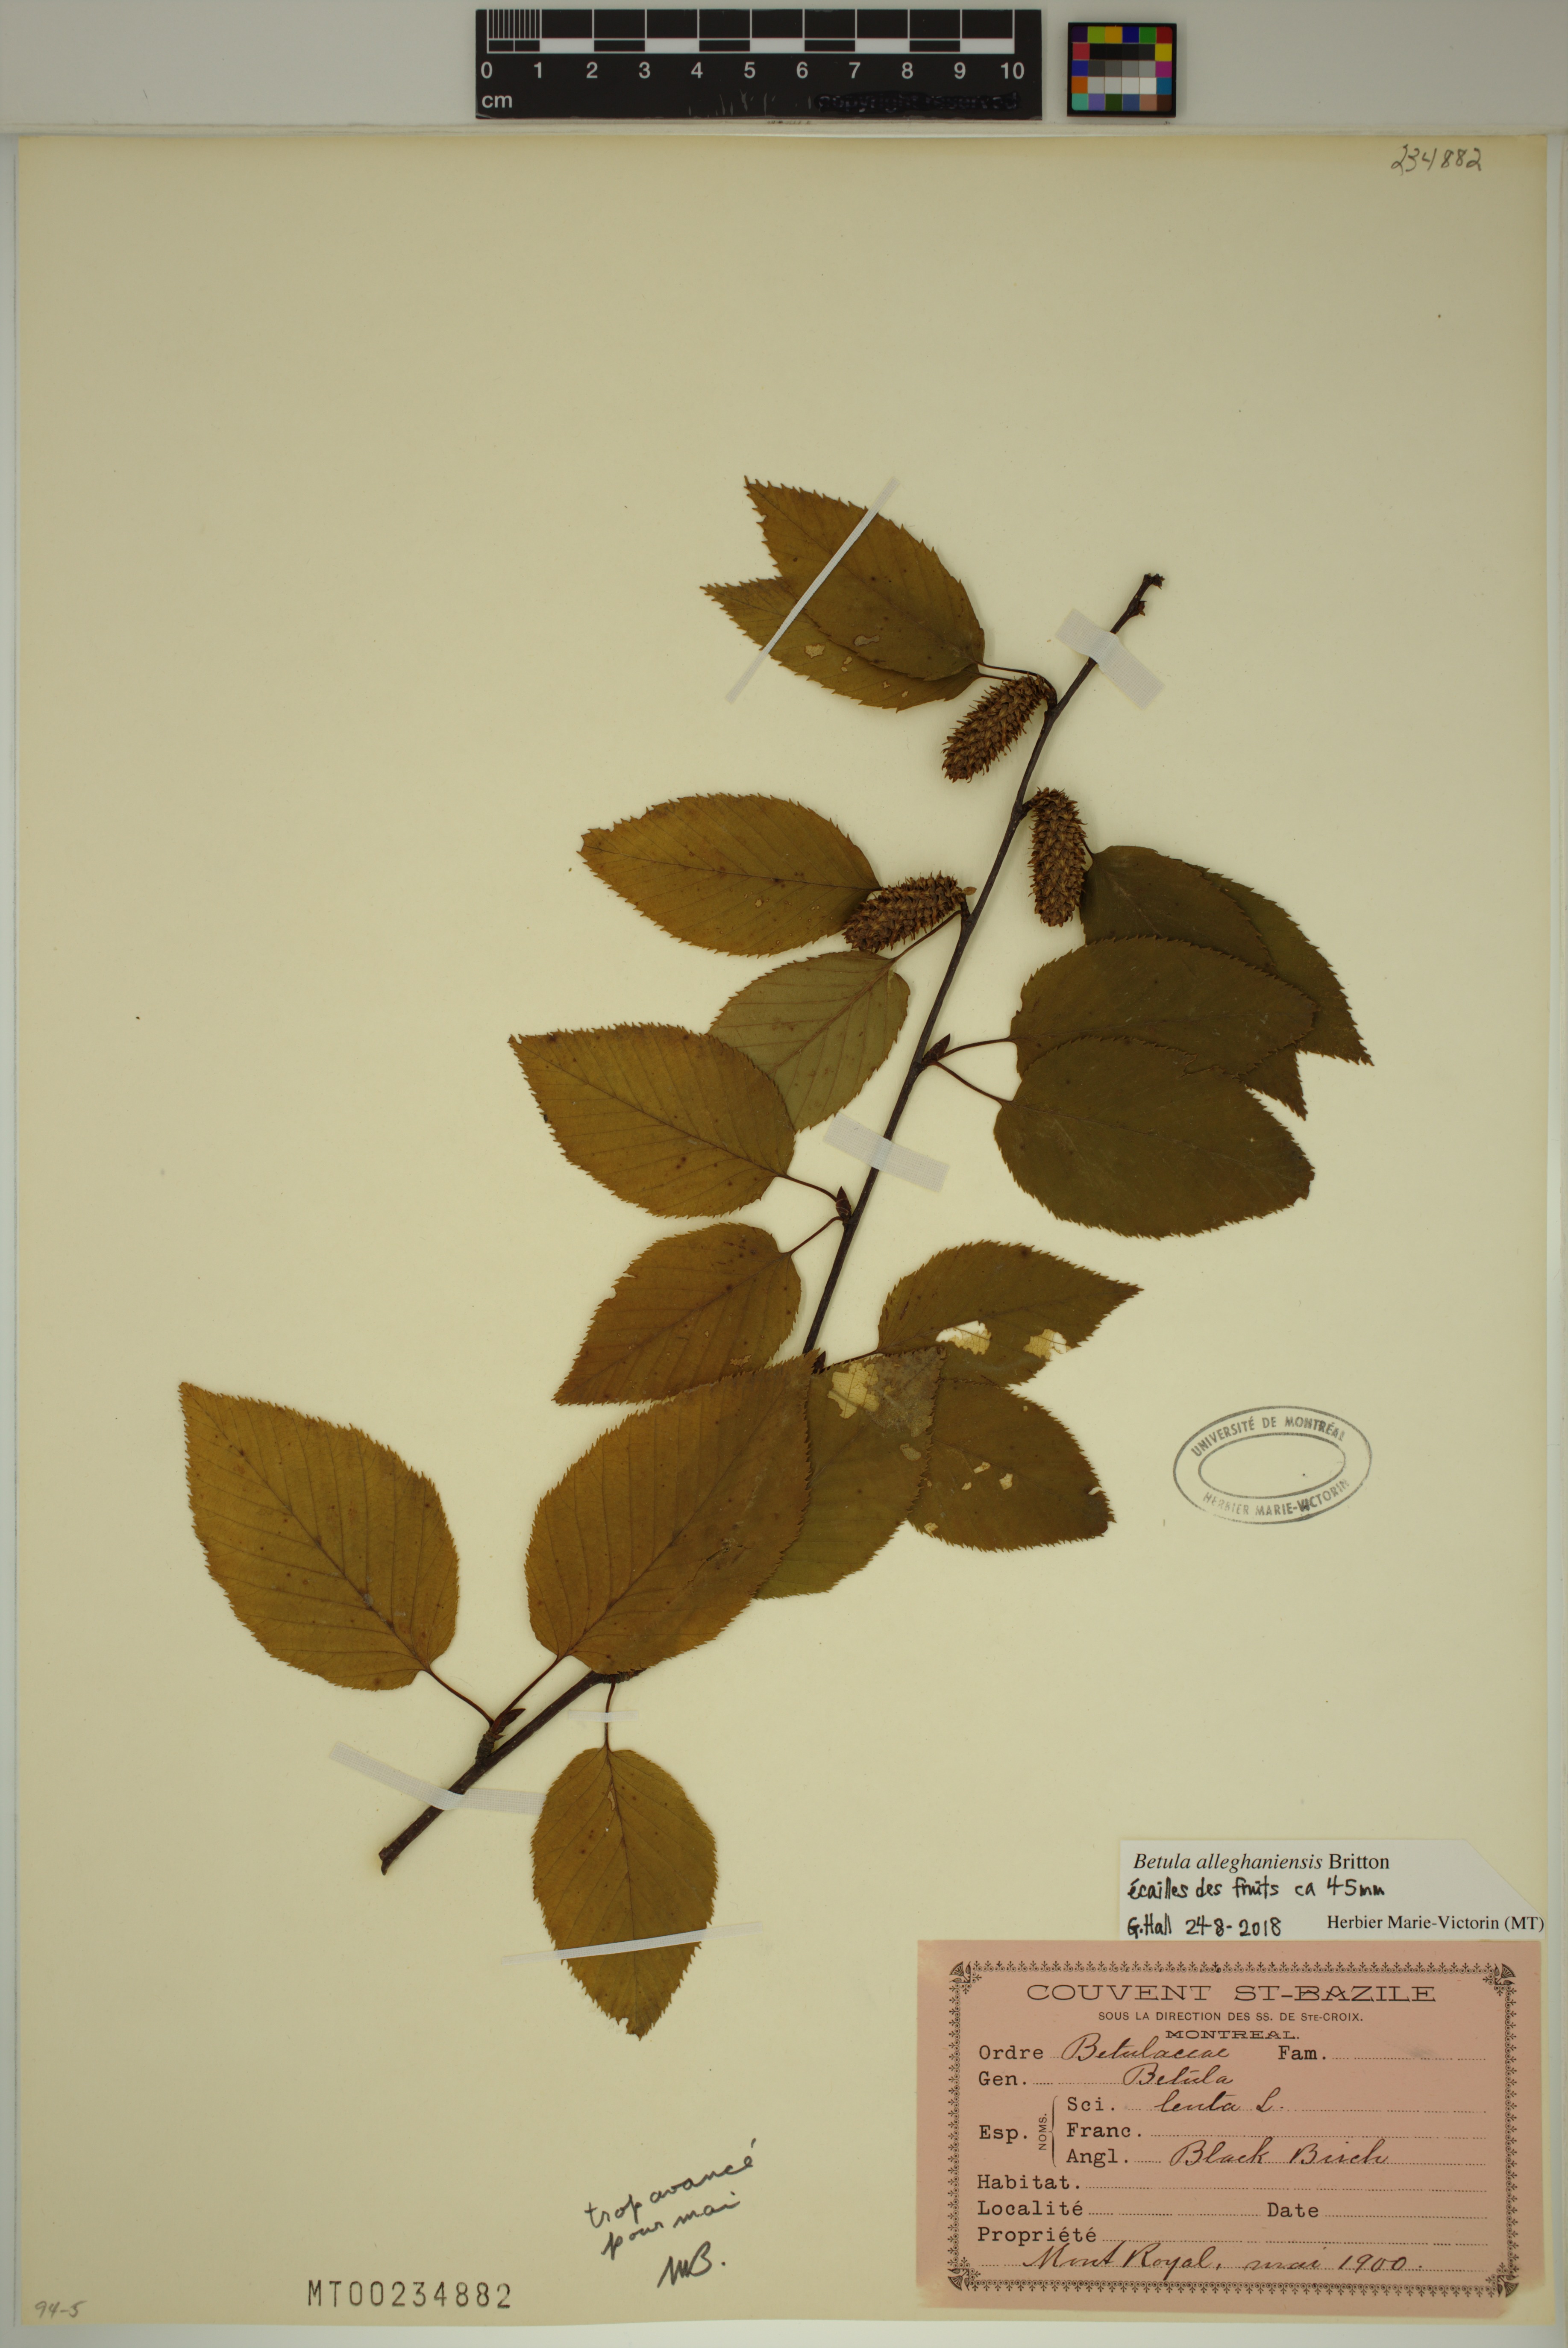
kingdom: Plantae
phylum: Tracheophyta
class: Magnoliopsida
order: Fagales
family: Betulaceae
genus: Betula
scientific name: Betula alleghaniensis
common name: Yellow birch
